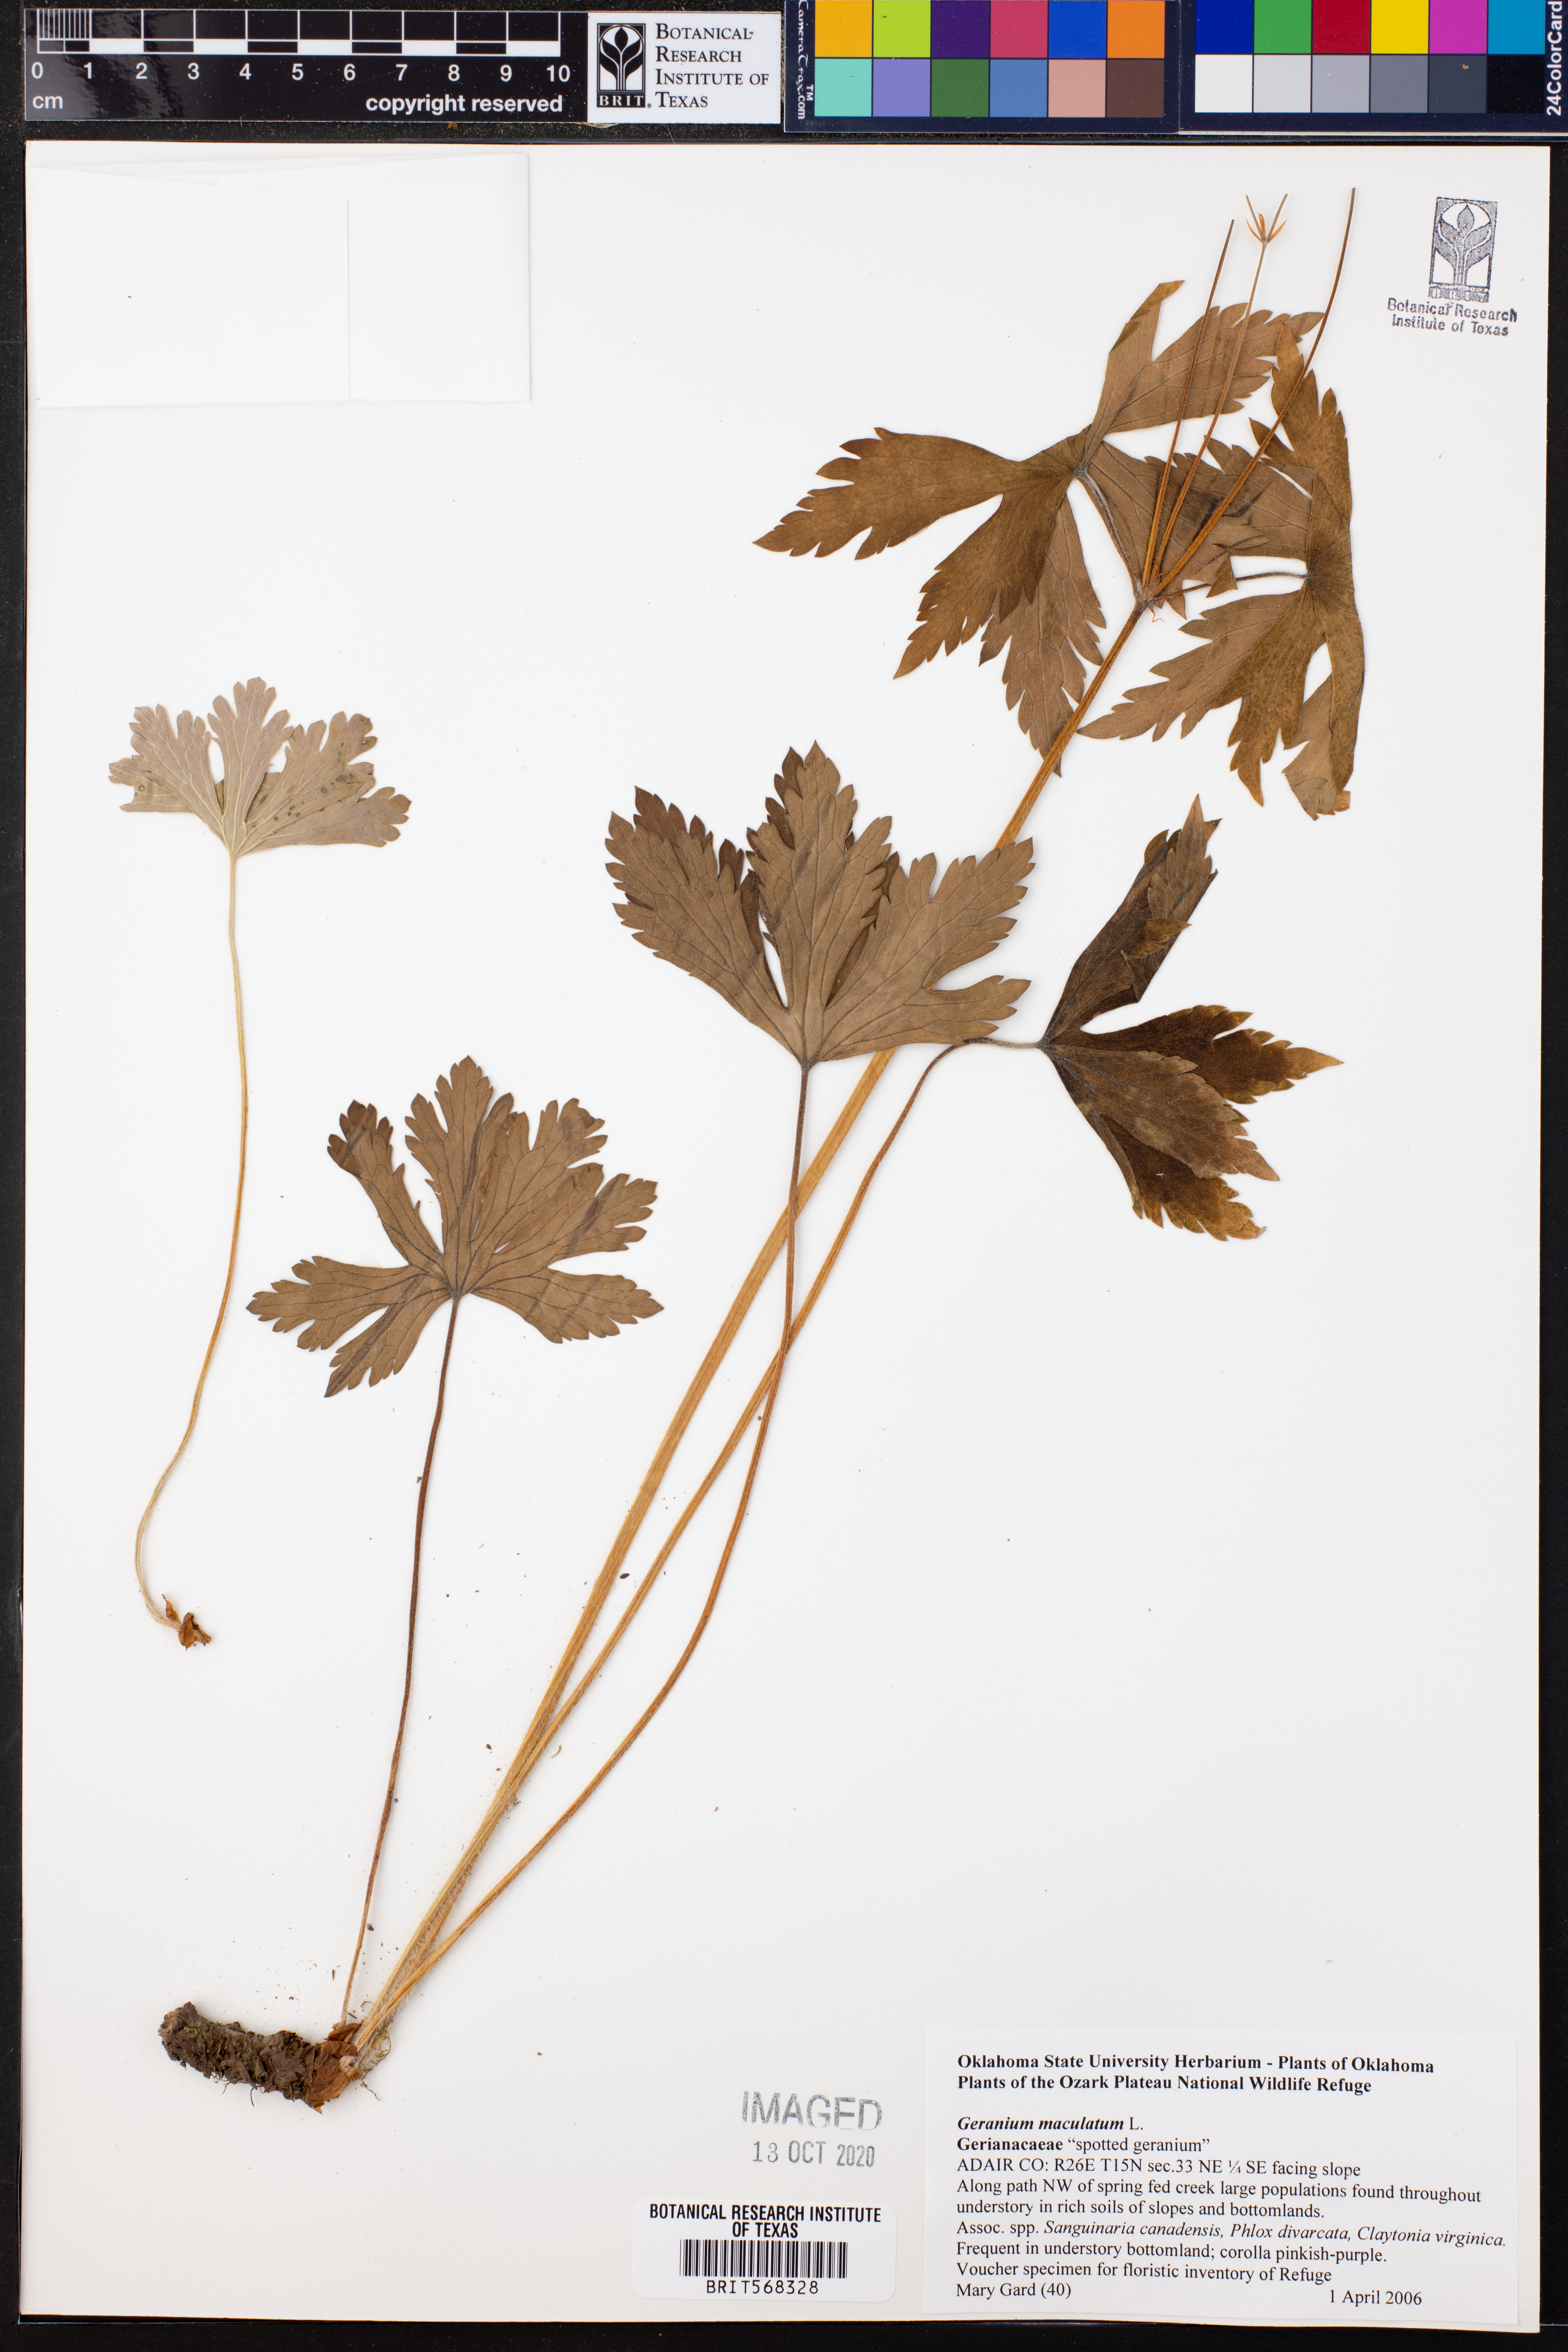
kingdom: Plantae
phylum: Tracheophyta
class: Magnoliopsida
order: Geraniales
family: Geraniaceae
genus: Geranium
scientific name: Geranium maculatum
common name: Spotted geranium
